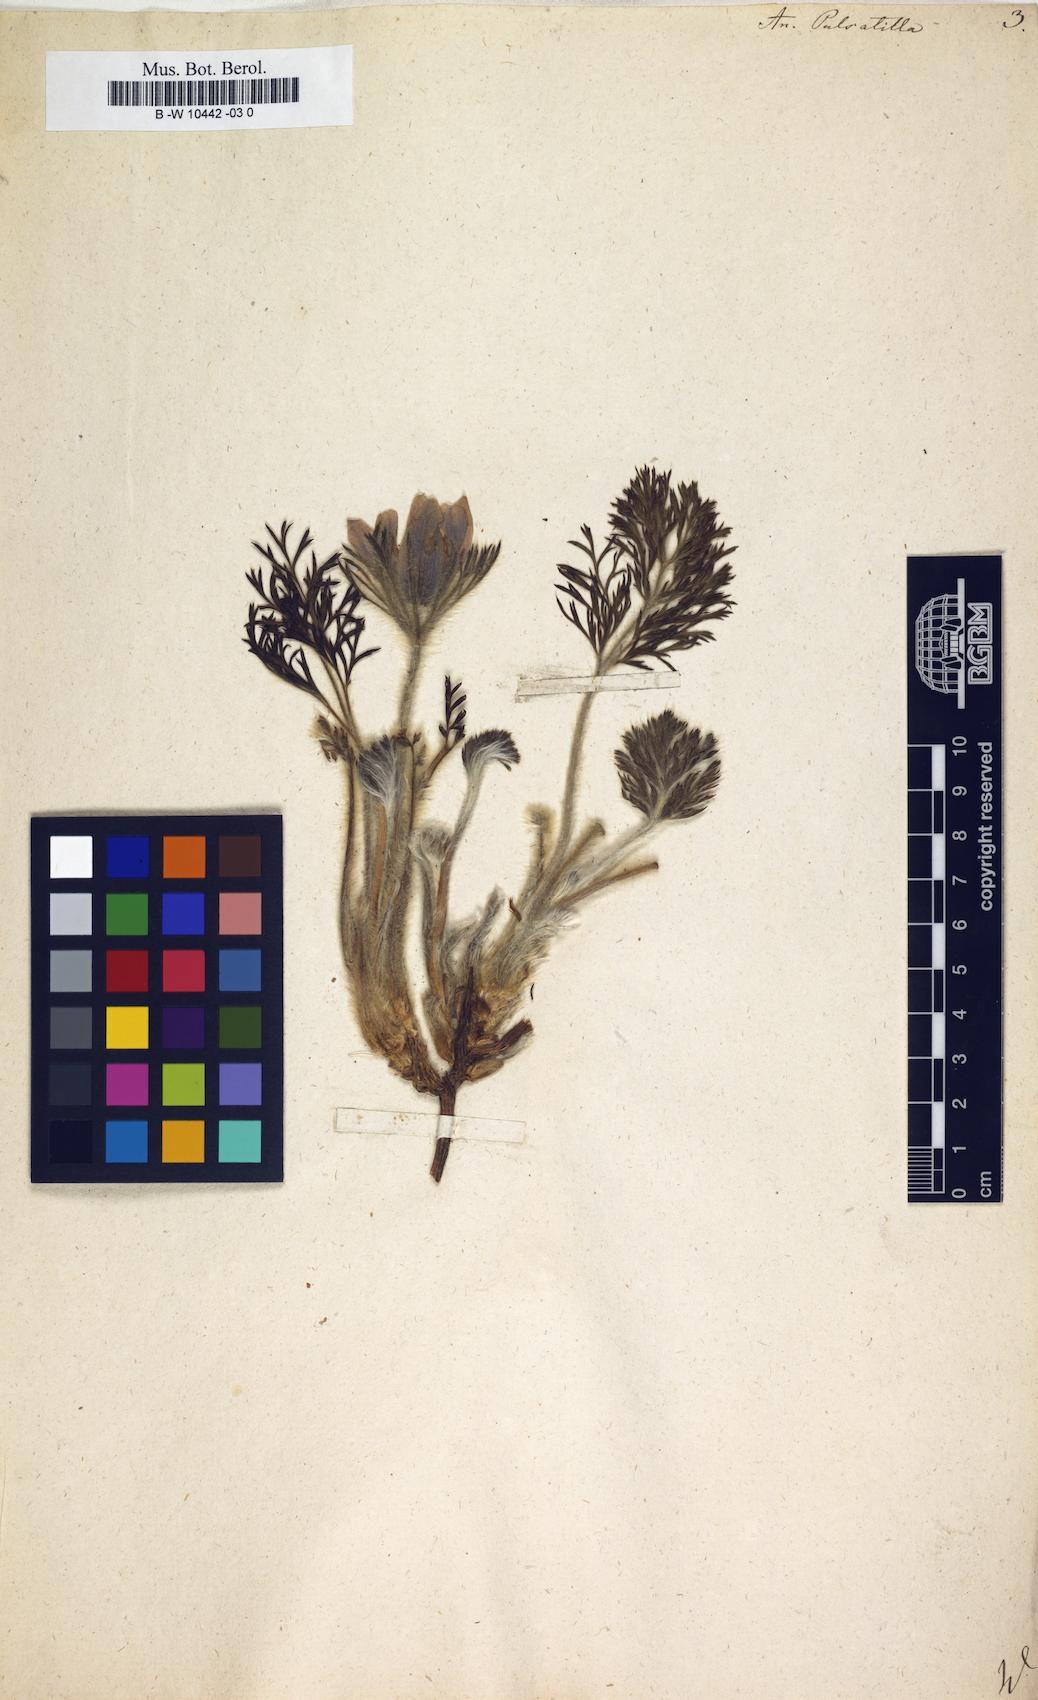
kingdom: Plantae
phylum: Tracheophyta
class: Magnoliopsida
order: Ranunculales
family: Ranunculaceae
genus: Pulsatilla
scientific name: Pulsatilla vulgaris
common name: Pasqueflower
